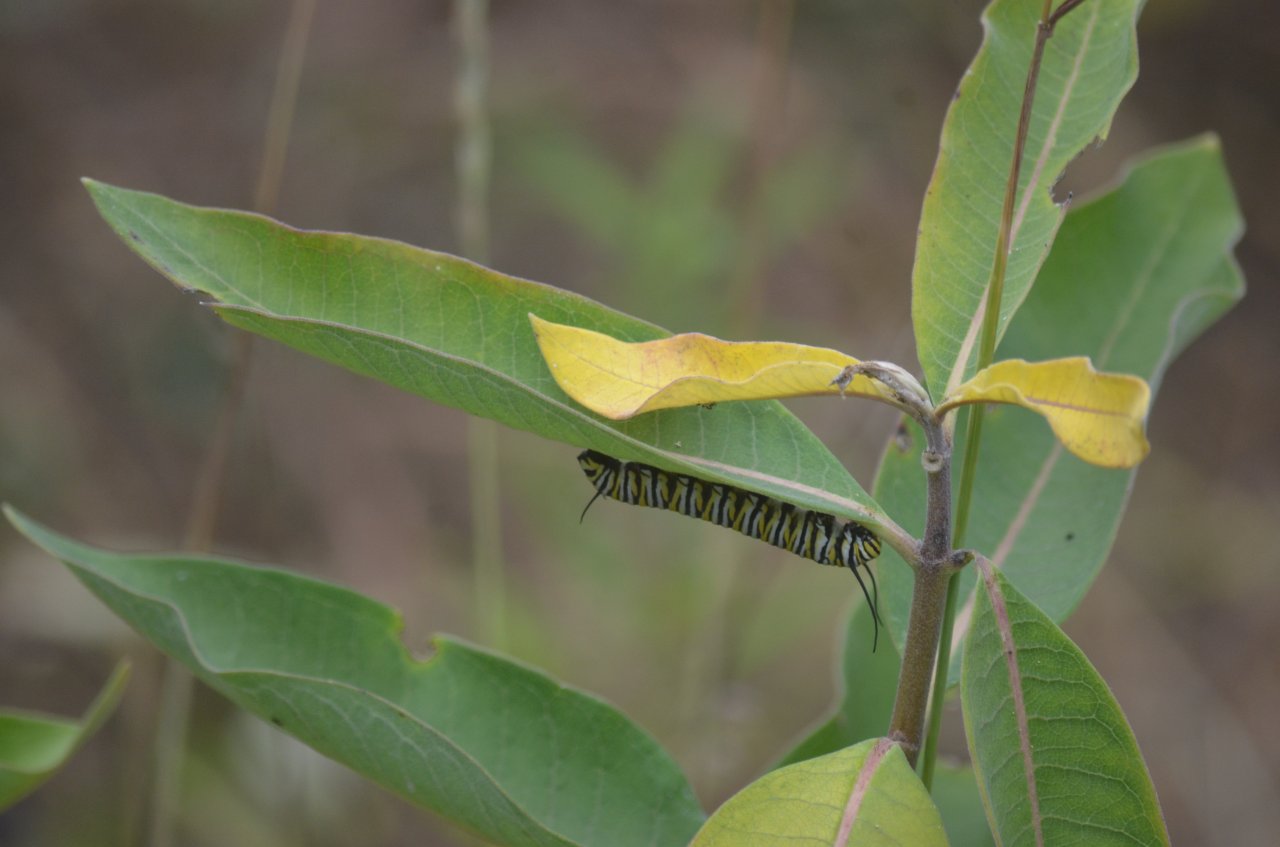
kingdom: Animalia
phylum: Arthropoda
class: Insecta
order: Lepidoptera
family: Nymphalidae
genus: Danaus
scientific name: Danaus plexippus
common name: Monarch
